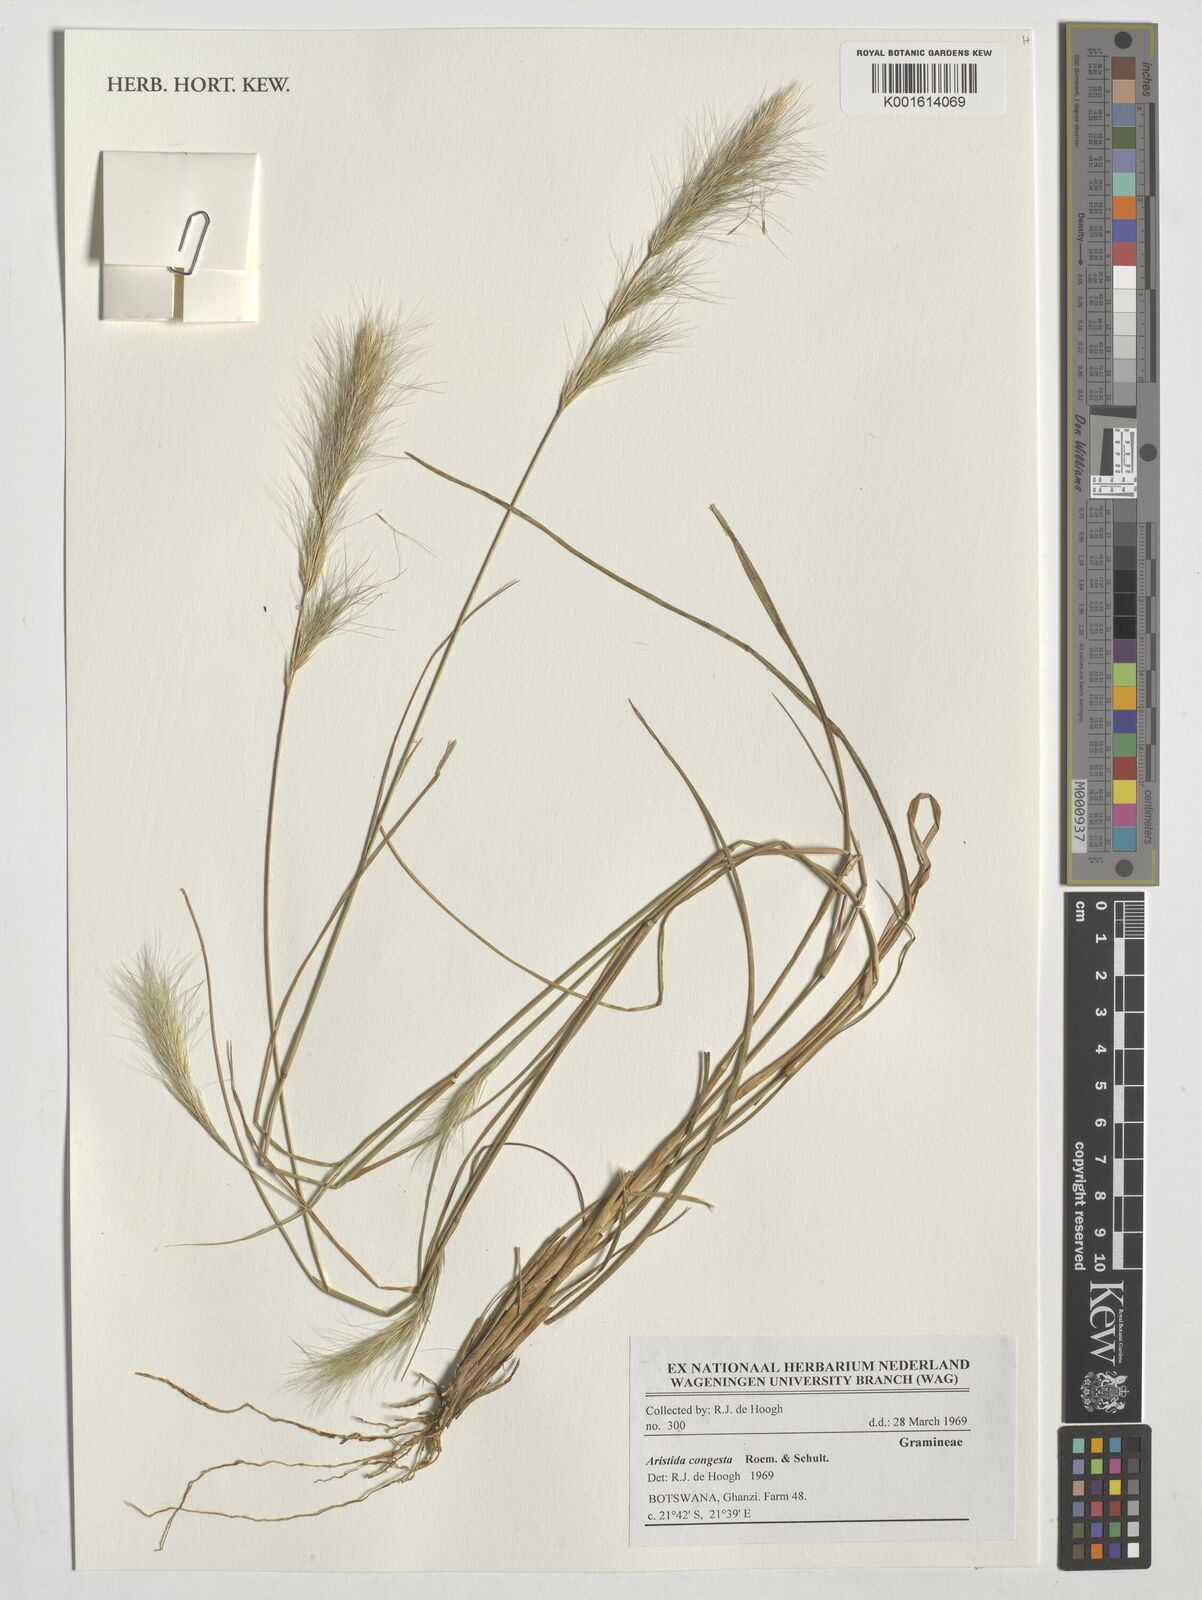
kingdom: Plantae
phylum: Tracheophyta
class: Liliopsida
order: Poales
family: Poaceae
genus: Aristida
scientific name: Aristida congesta
